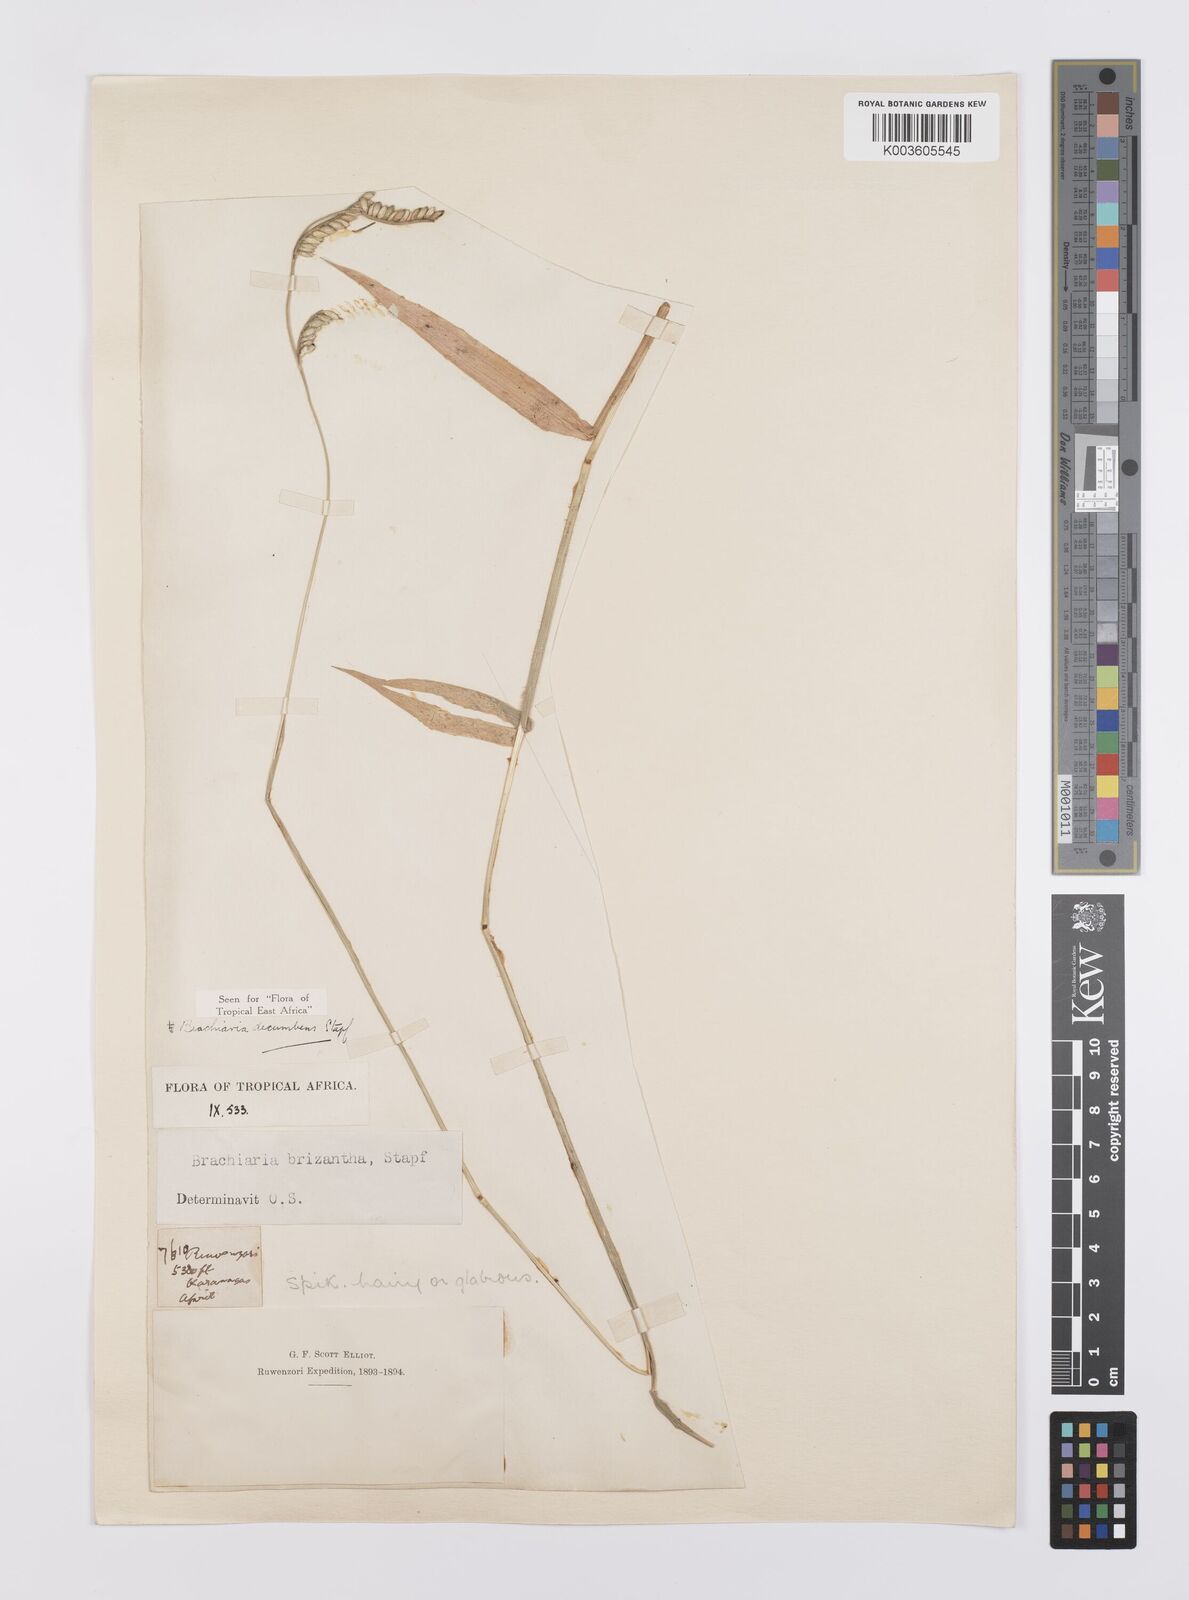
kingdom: Plantae
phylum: Tracheophyta
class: Liliopsida
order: Poales
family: Poaceae
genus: Urochloa
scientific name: Urochloa eminii
